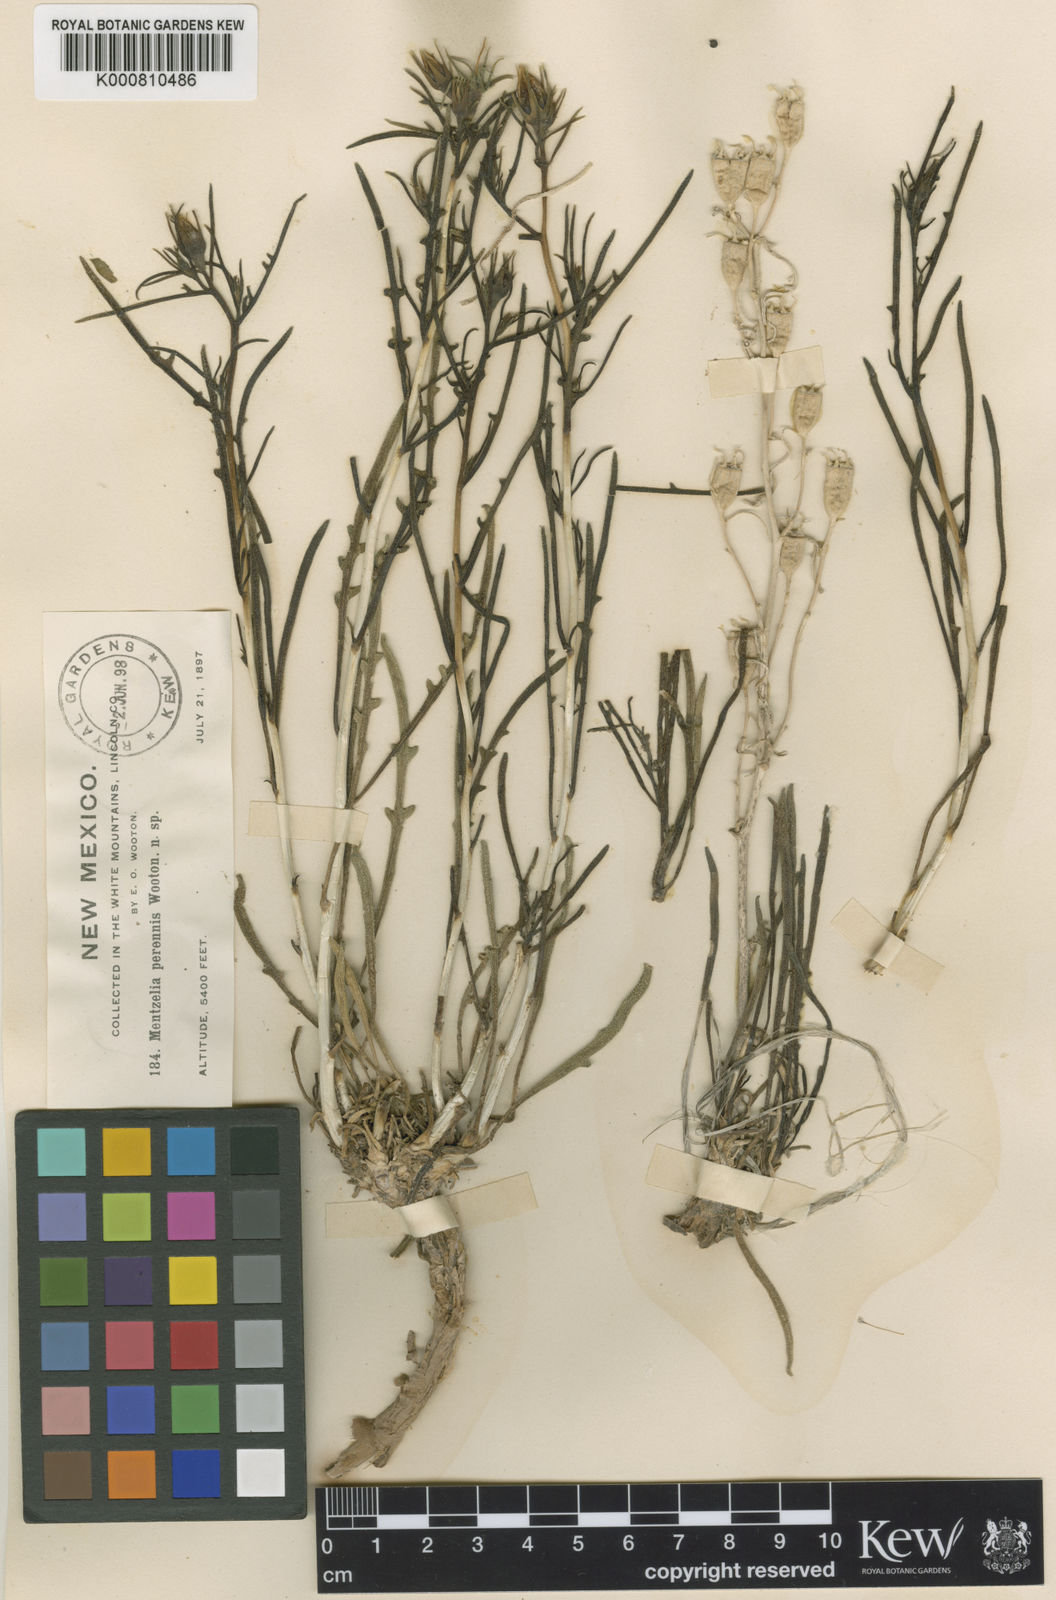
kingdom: Plantae
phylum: Tracheophyta
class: Magnoliopsida
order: Cornales
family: Loasaceae
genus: Mentzelia
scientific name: Mentzelia perennis
